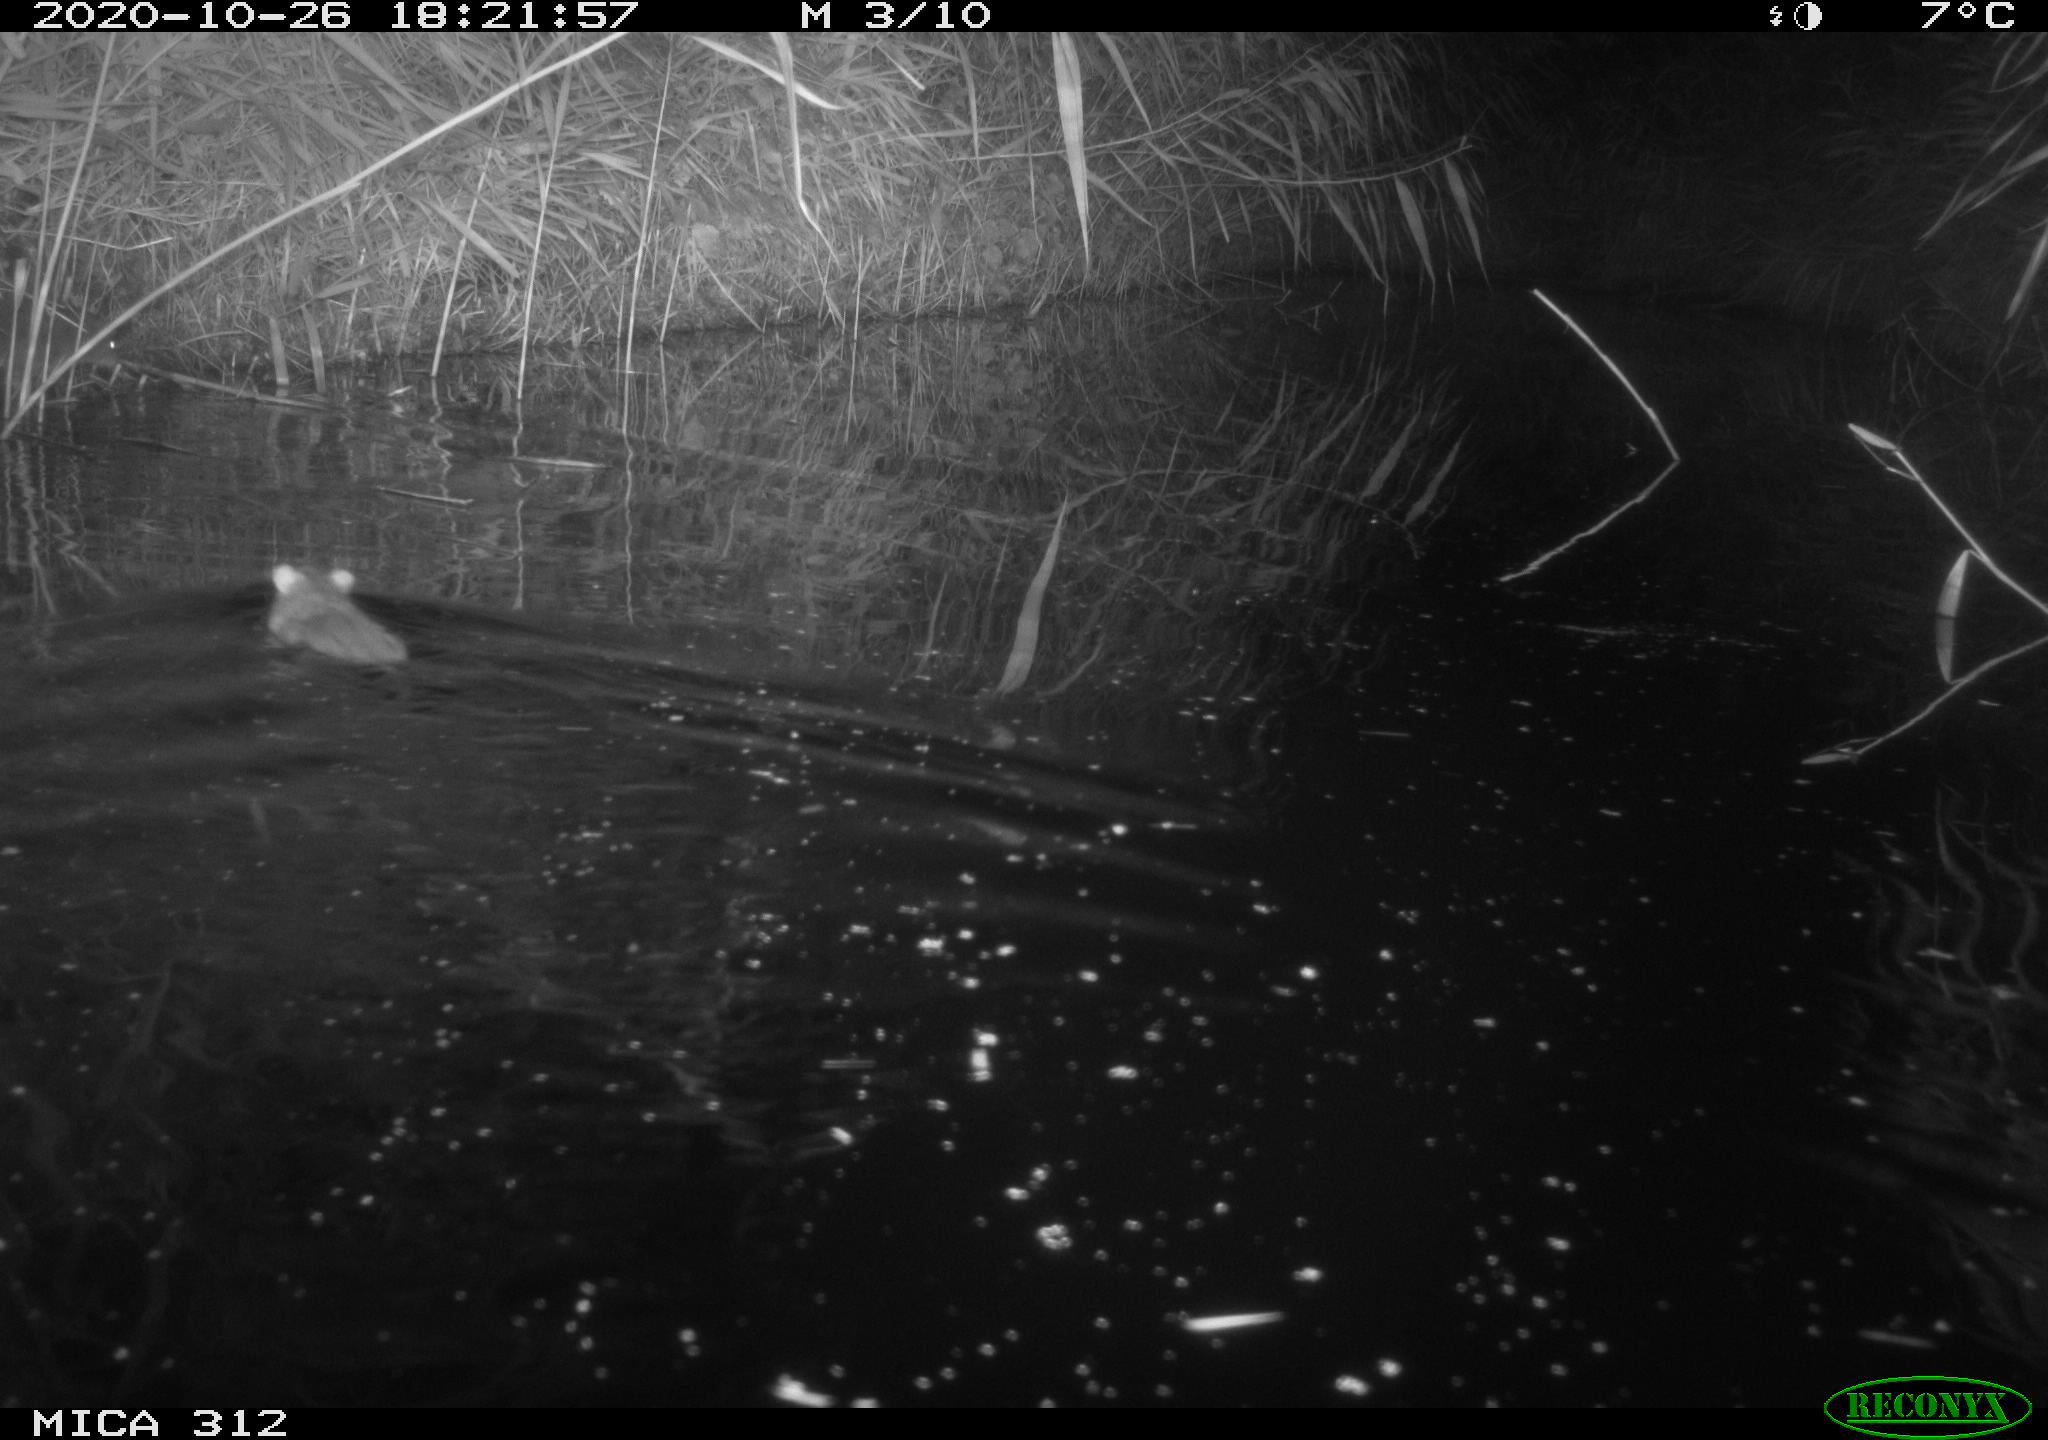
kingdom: Animalia
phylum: Chordata
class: Mammalia
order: Rodentia
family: Muridae
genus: Rattus
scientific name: Rattus norvegicus
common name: Brown rat
